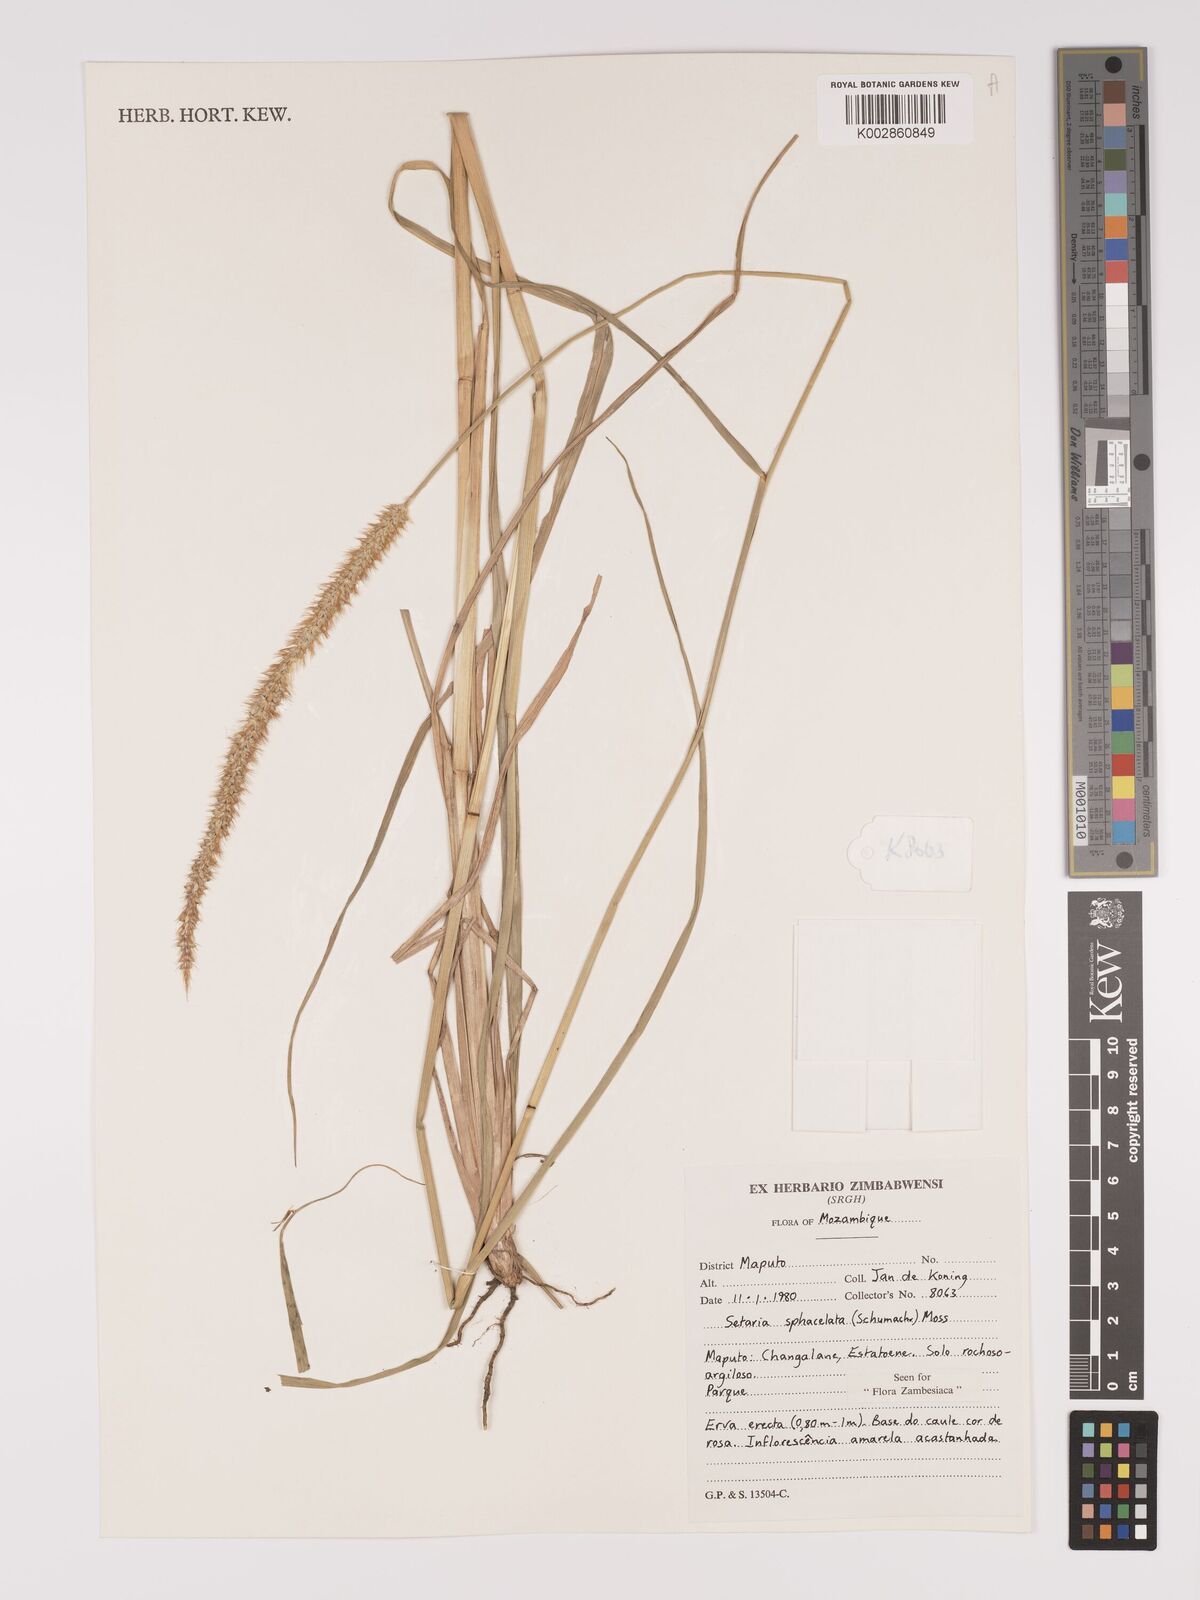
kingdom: Plantae
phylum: Tracheophyta
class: Liliopsida
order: Poales
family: Poaceae
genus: Setaria
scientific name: Setaria sphacelata
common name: African bristlegrass
